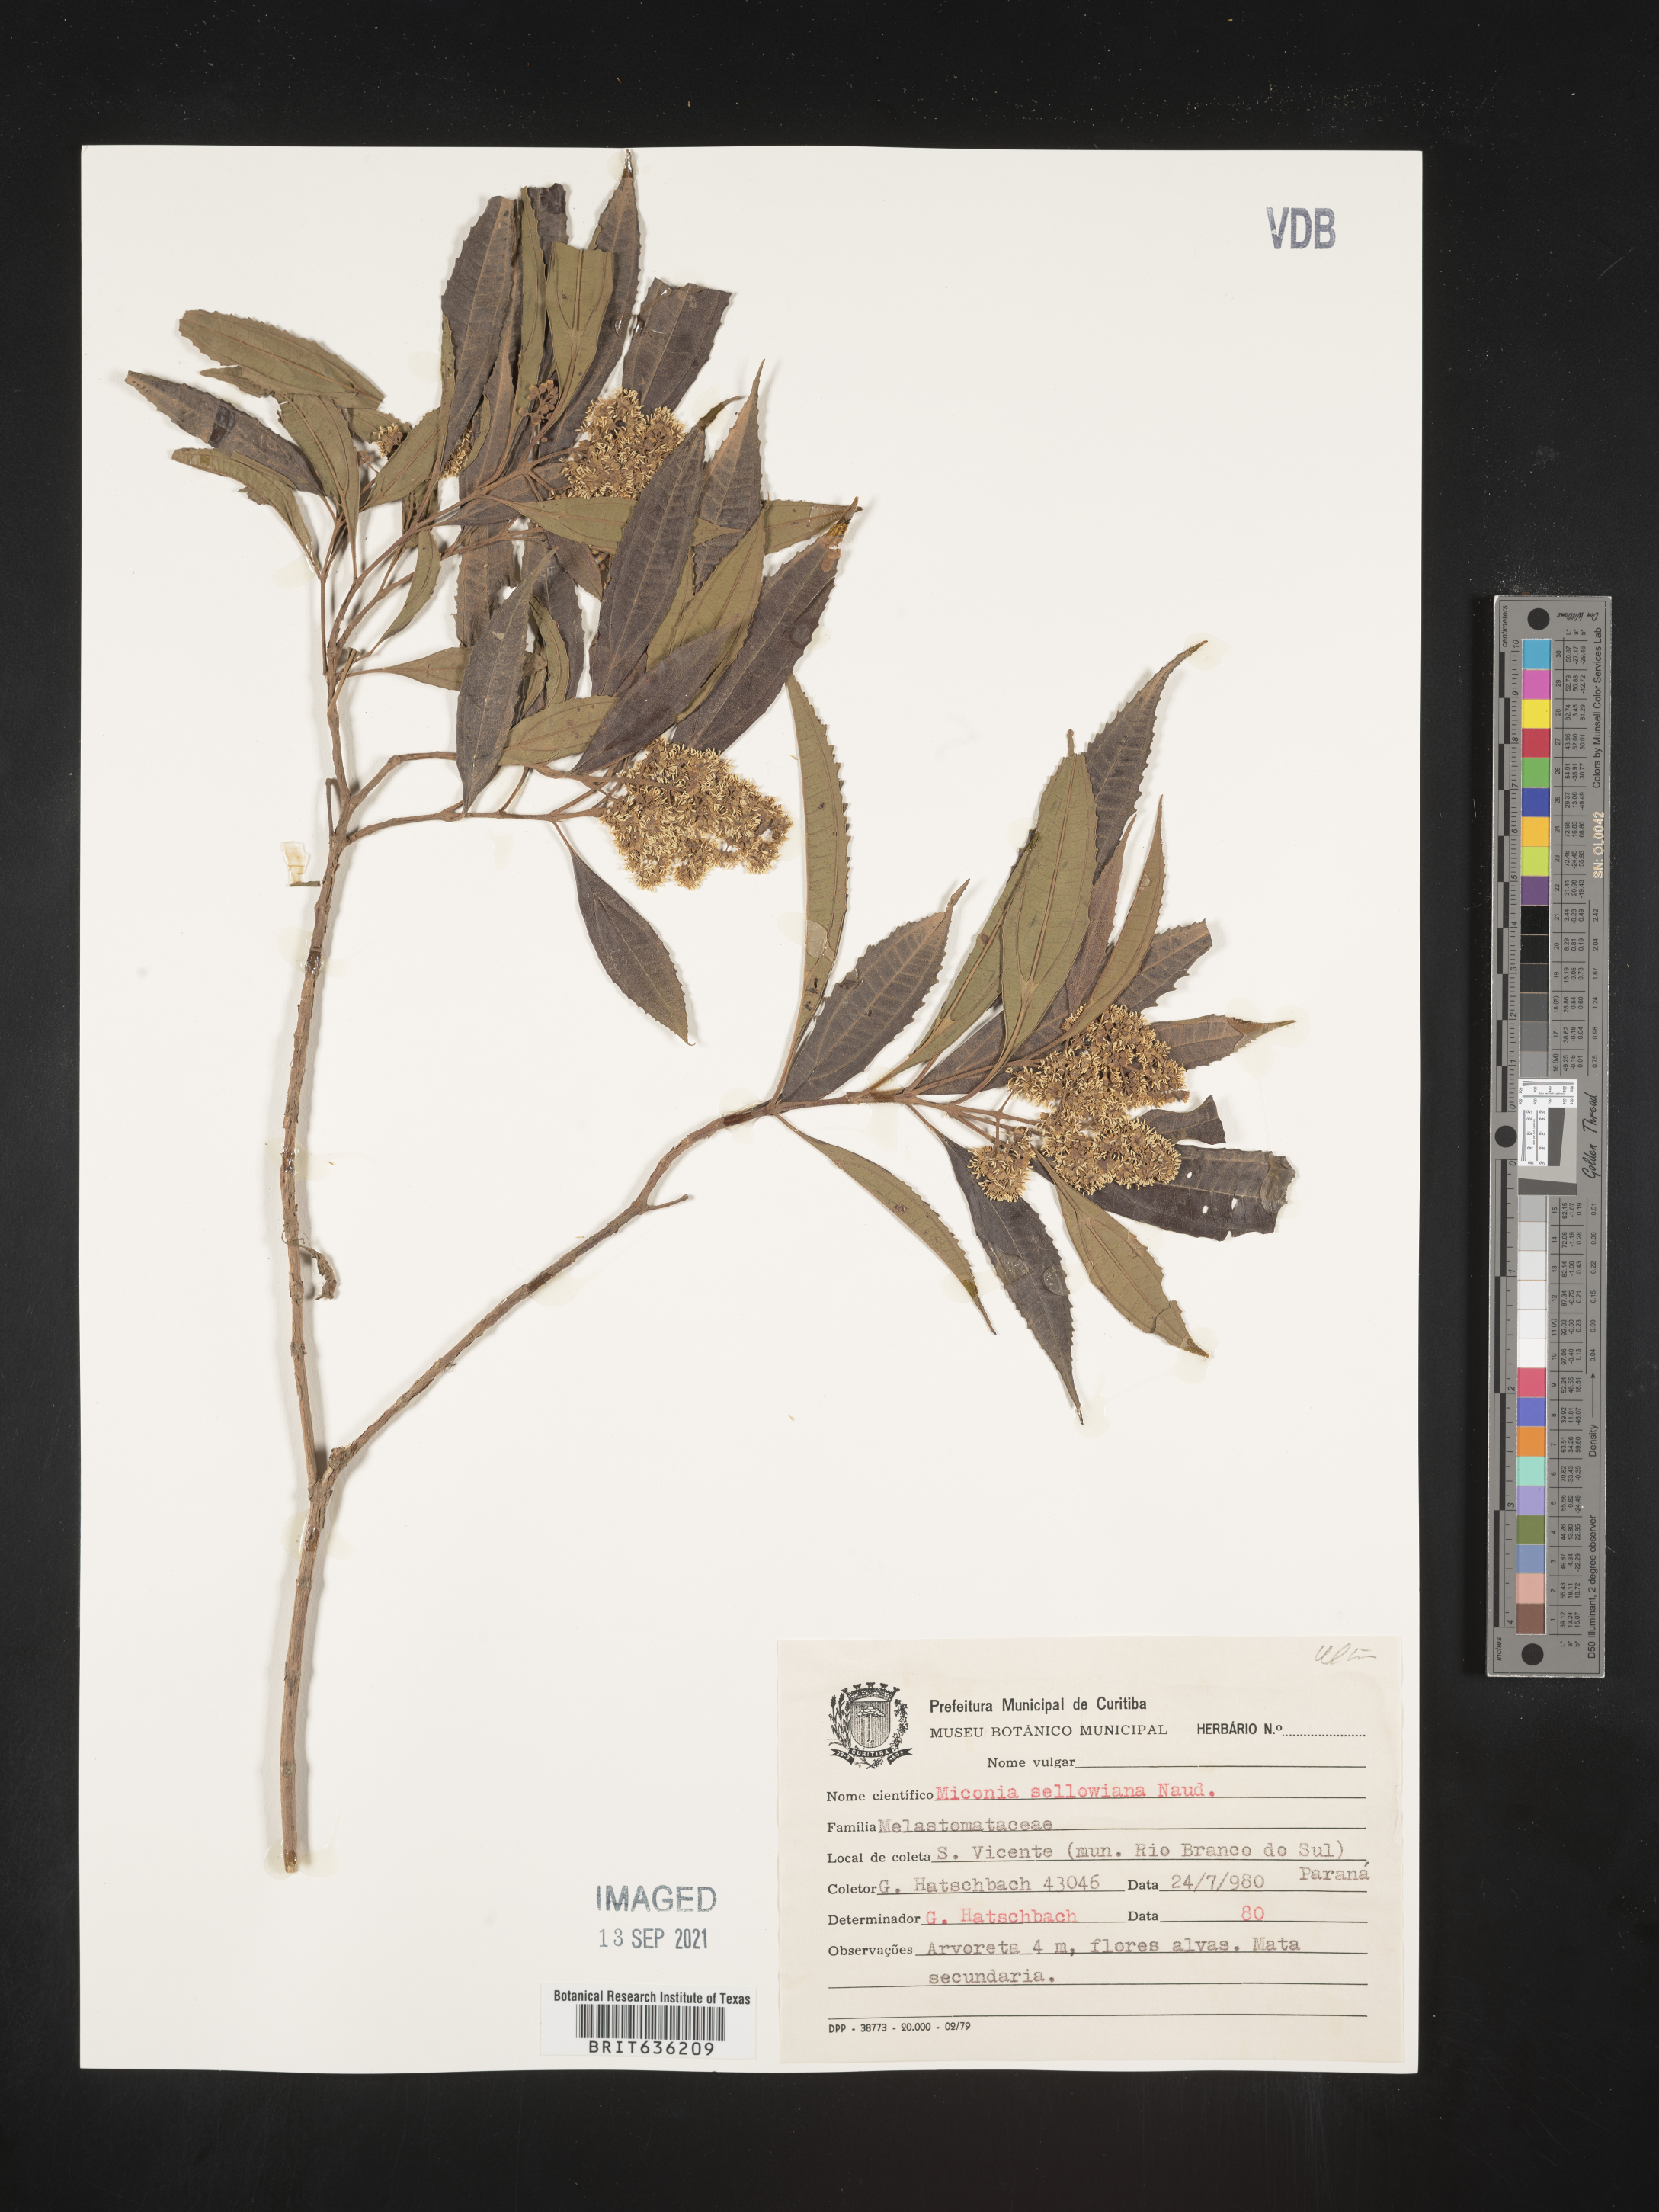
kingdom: Plantae
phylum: Tracheophyta
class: Magnoliopsida
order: Myrtales
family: Melastomataceae
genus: Miconia
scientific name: Miconia
